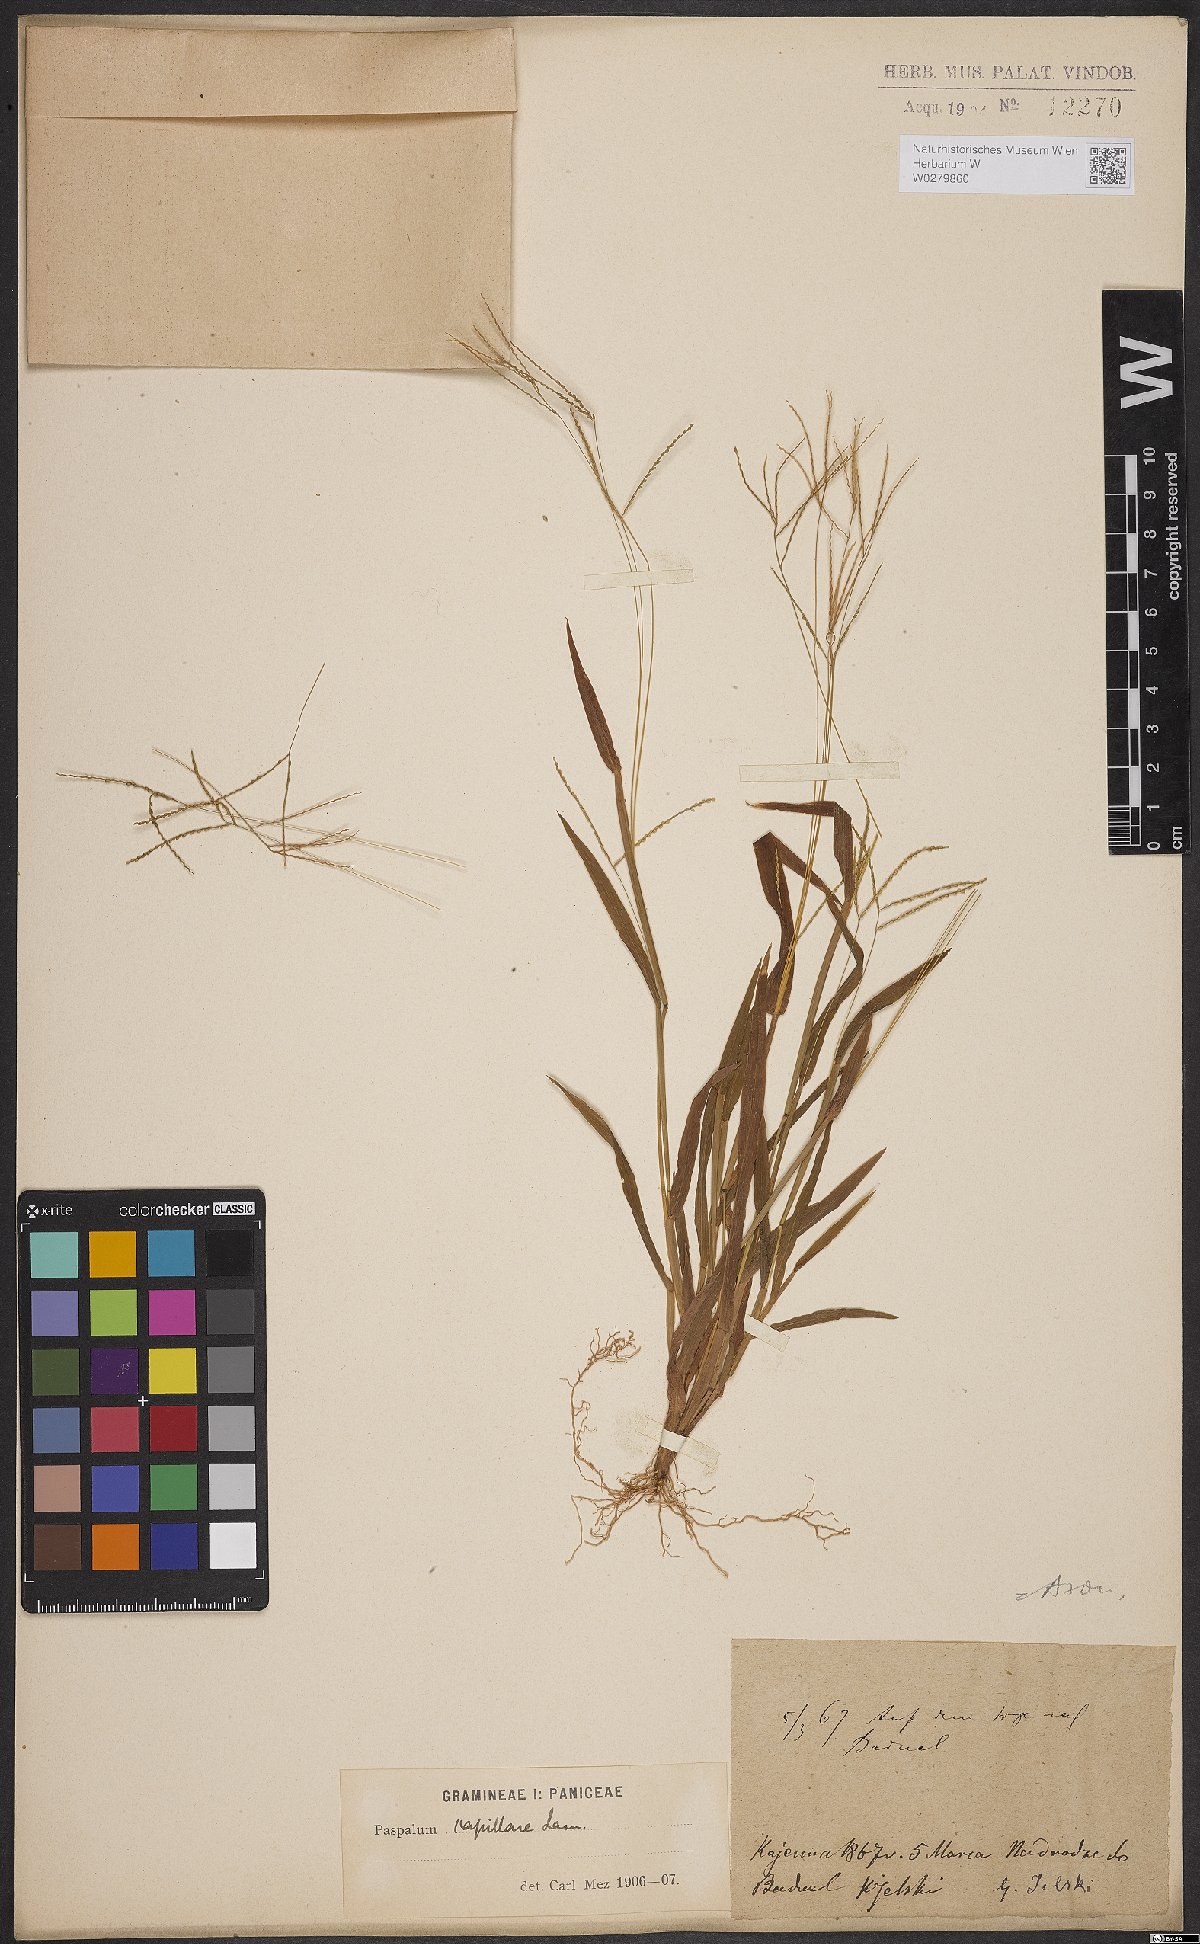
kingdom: Plantae
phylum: Tracheophyta
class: Liliopsida
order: Poales
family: Poaceae
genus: Axonopus
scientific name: Axonopus capillaris
